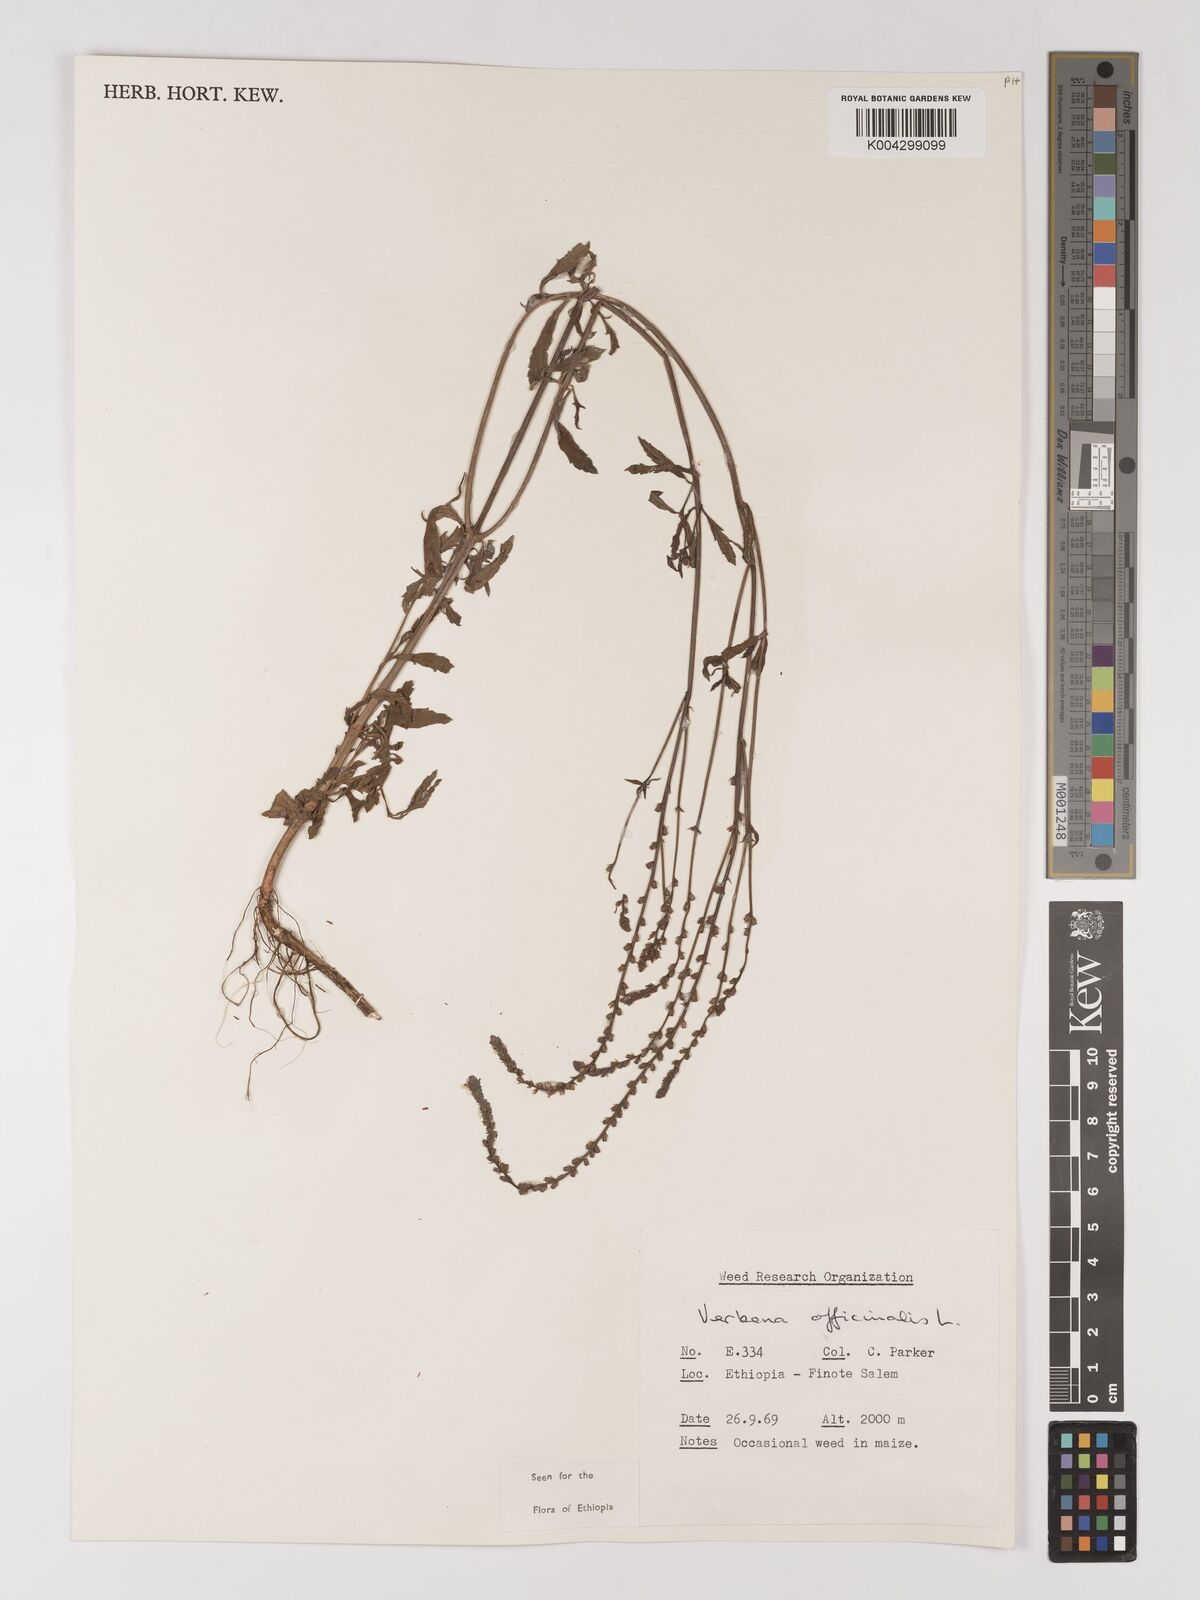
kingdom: Plantae
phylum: Tracheophyta
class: Magnoliopsida
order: Lamiales
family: Verbenaceae
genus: Verbena
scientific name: Verbena officinalis
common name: Vervain
